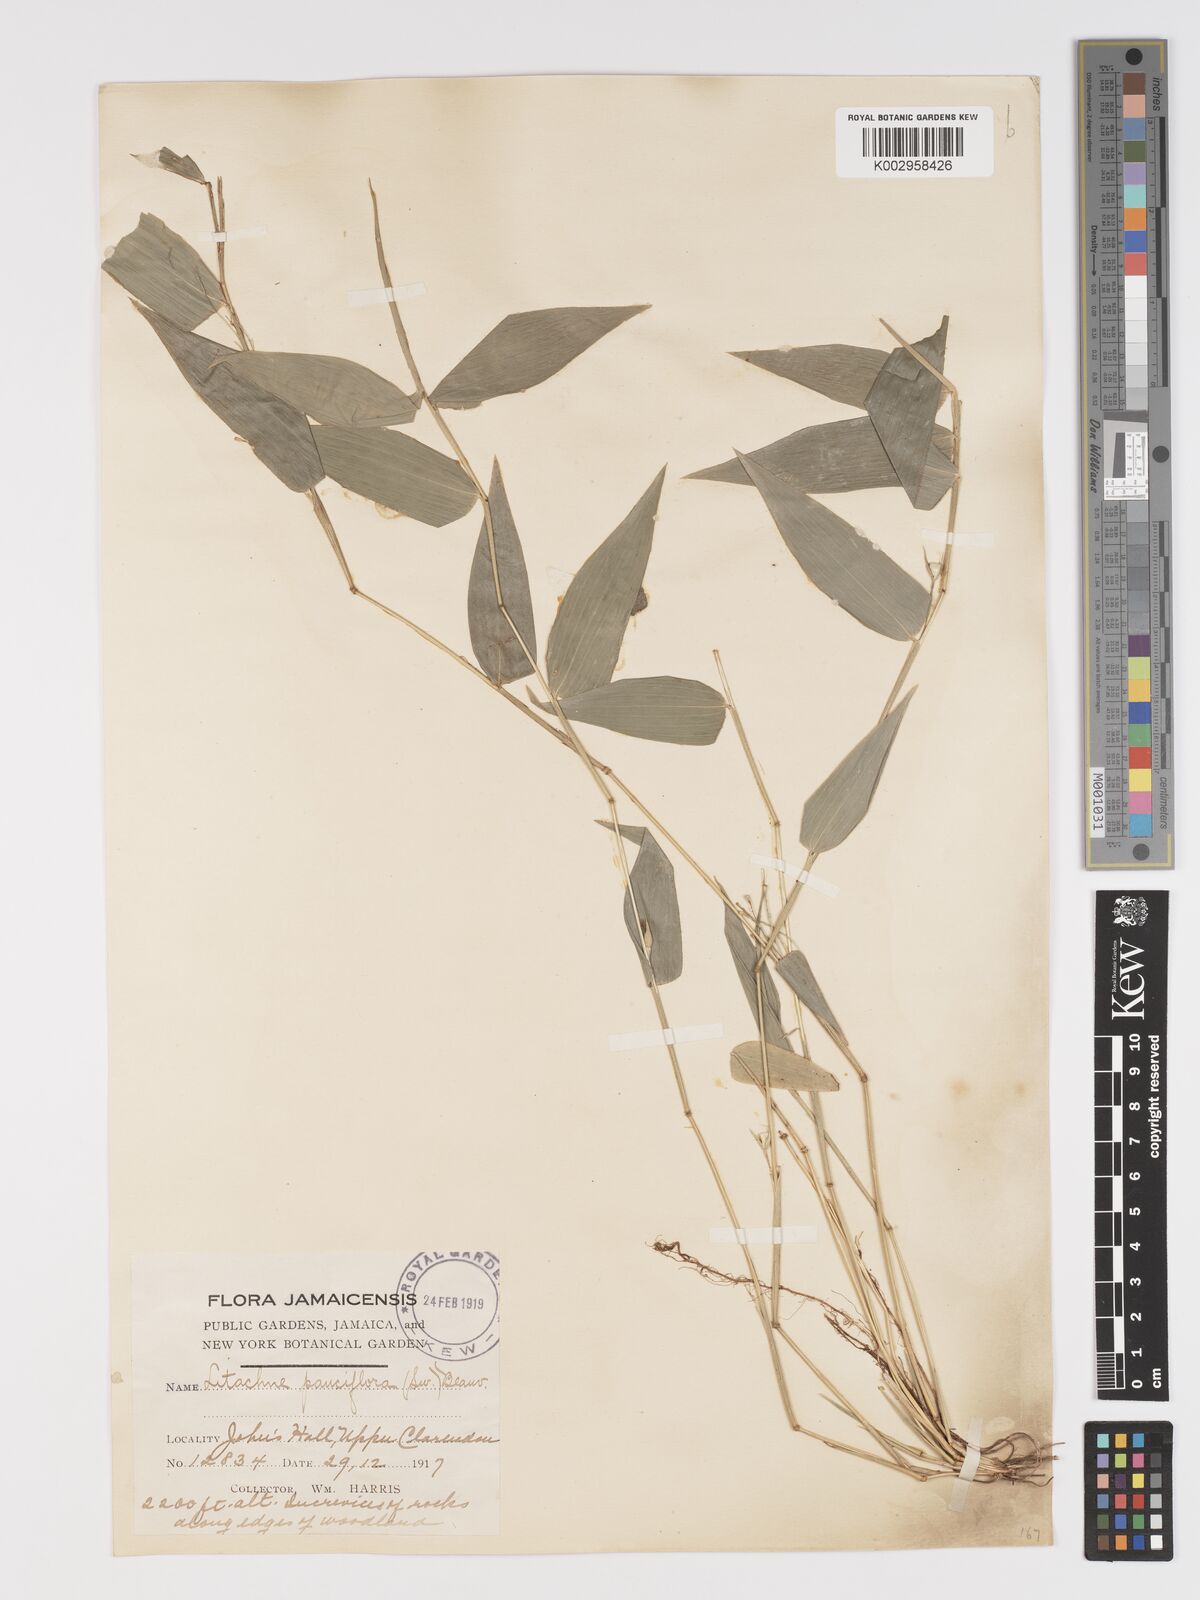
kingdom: Plantae
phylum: Tracheophyta
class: Liliopsida
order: Poales
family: Poaceae
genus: Lithachne
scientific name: Lithachne pauciflora
